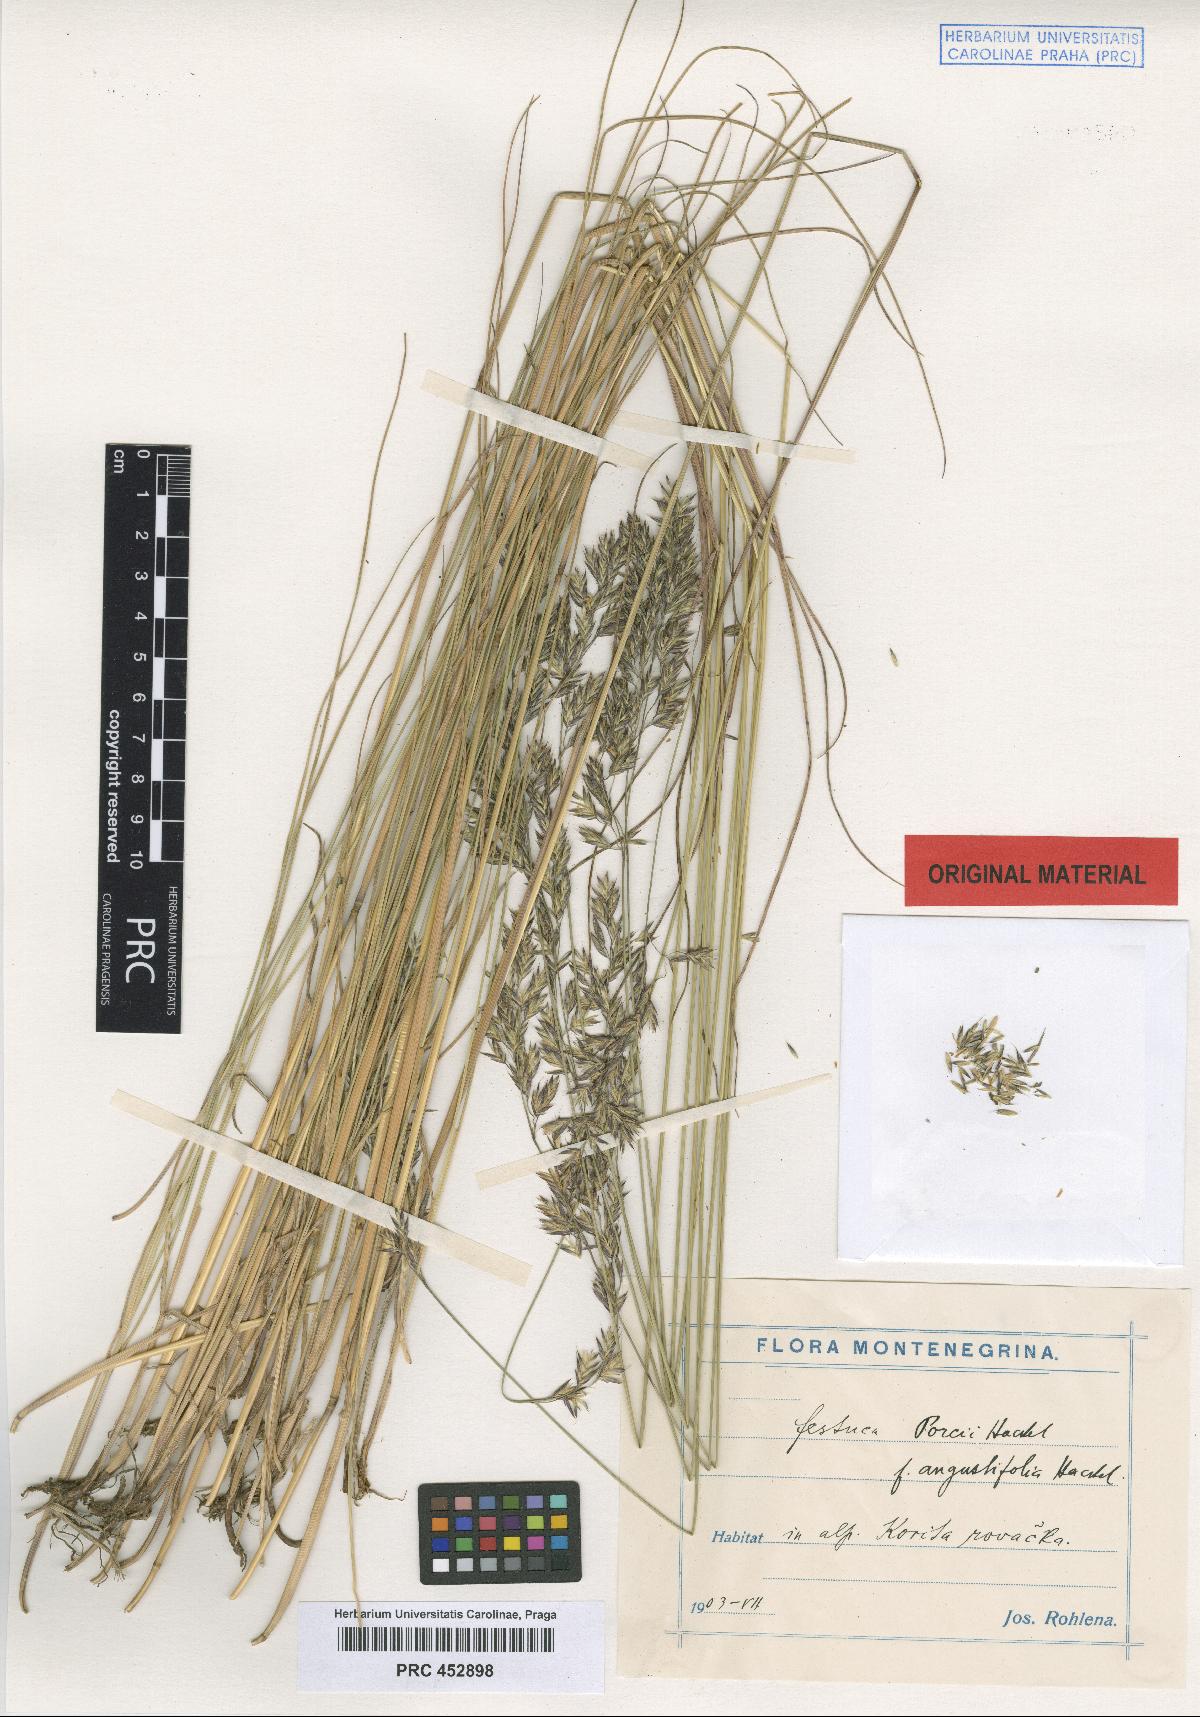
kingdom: Plantae
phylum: Tracheophyta
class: Liliopsida
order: Poales
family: Poaceae
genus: Festuca
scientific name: Festuca rohlenae
